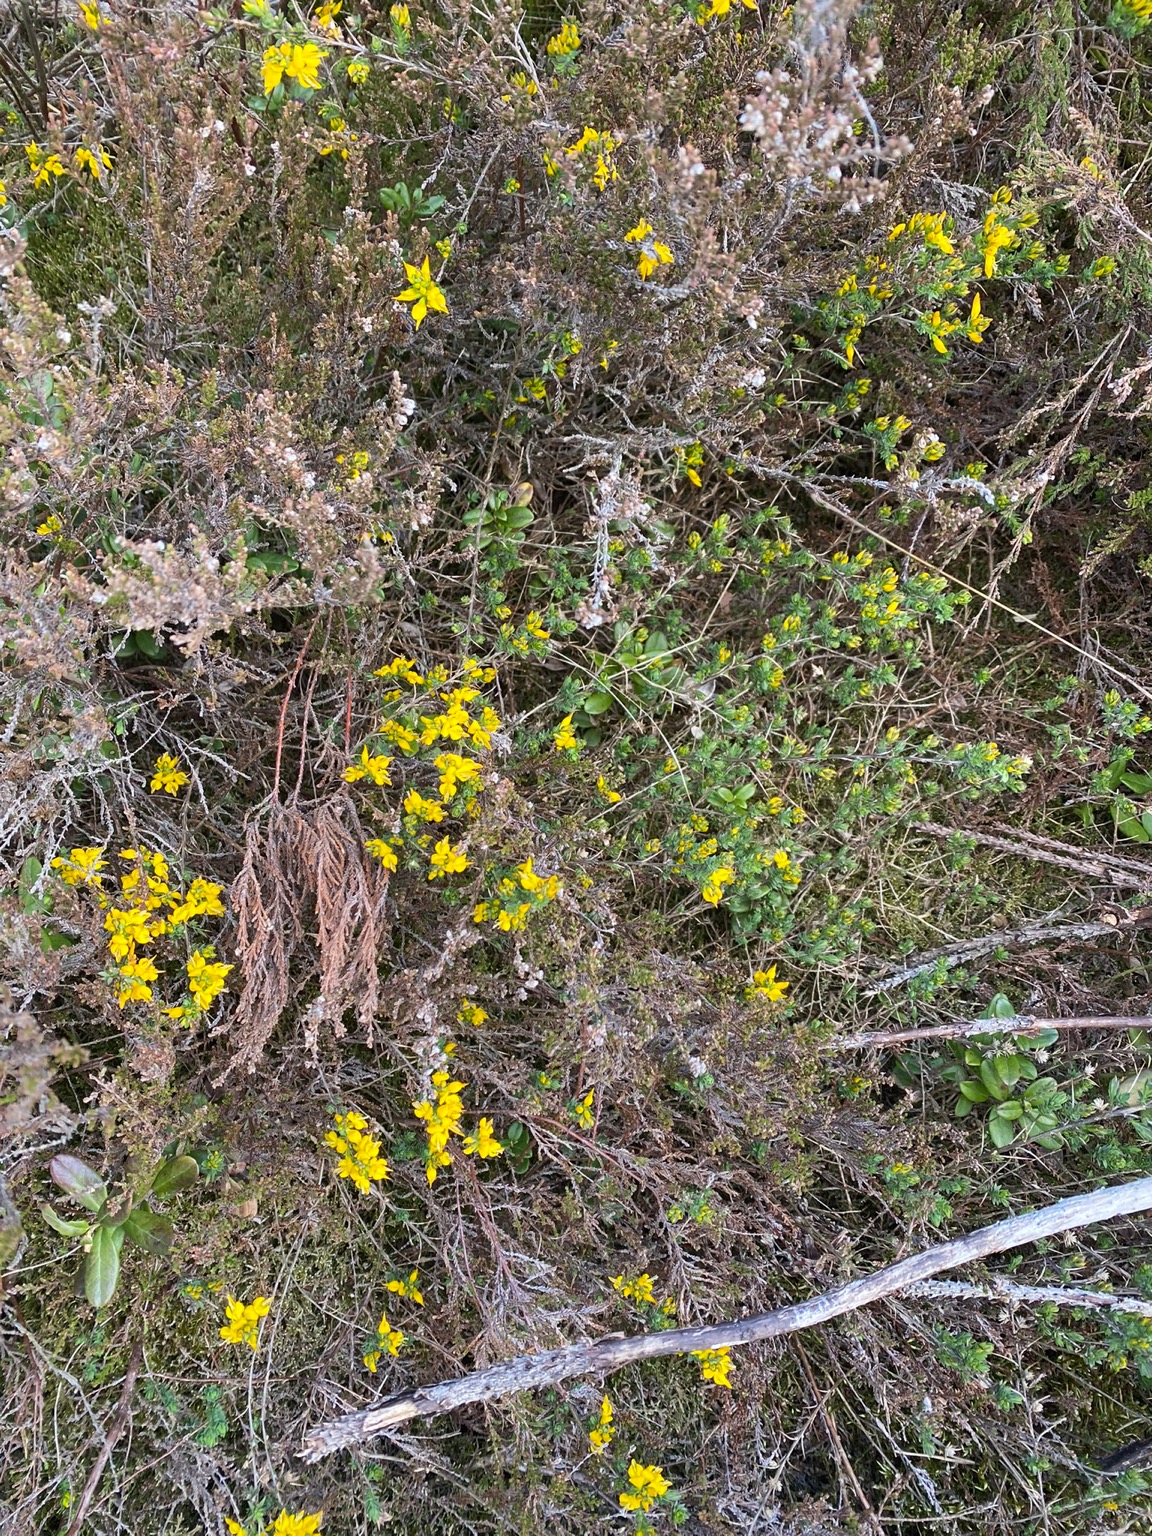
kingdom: Plantae
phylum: Tracheophyta
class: Magnoliopsida
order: Fabales
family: Fabaceae
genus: Genista
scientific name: Genista anglica
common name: Engelsk visse
